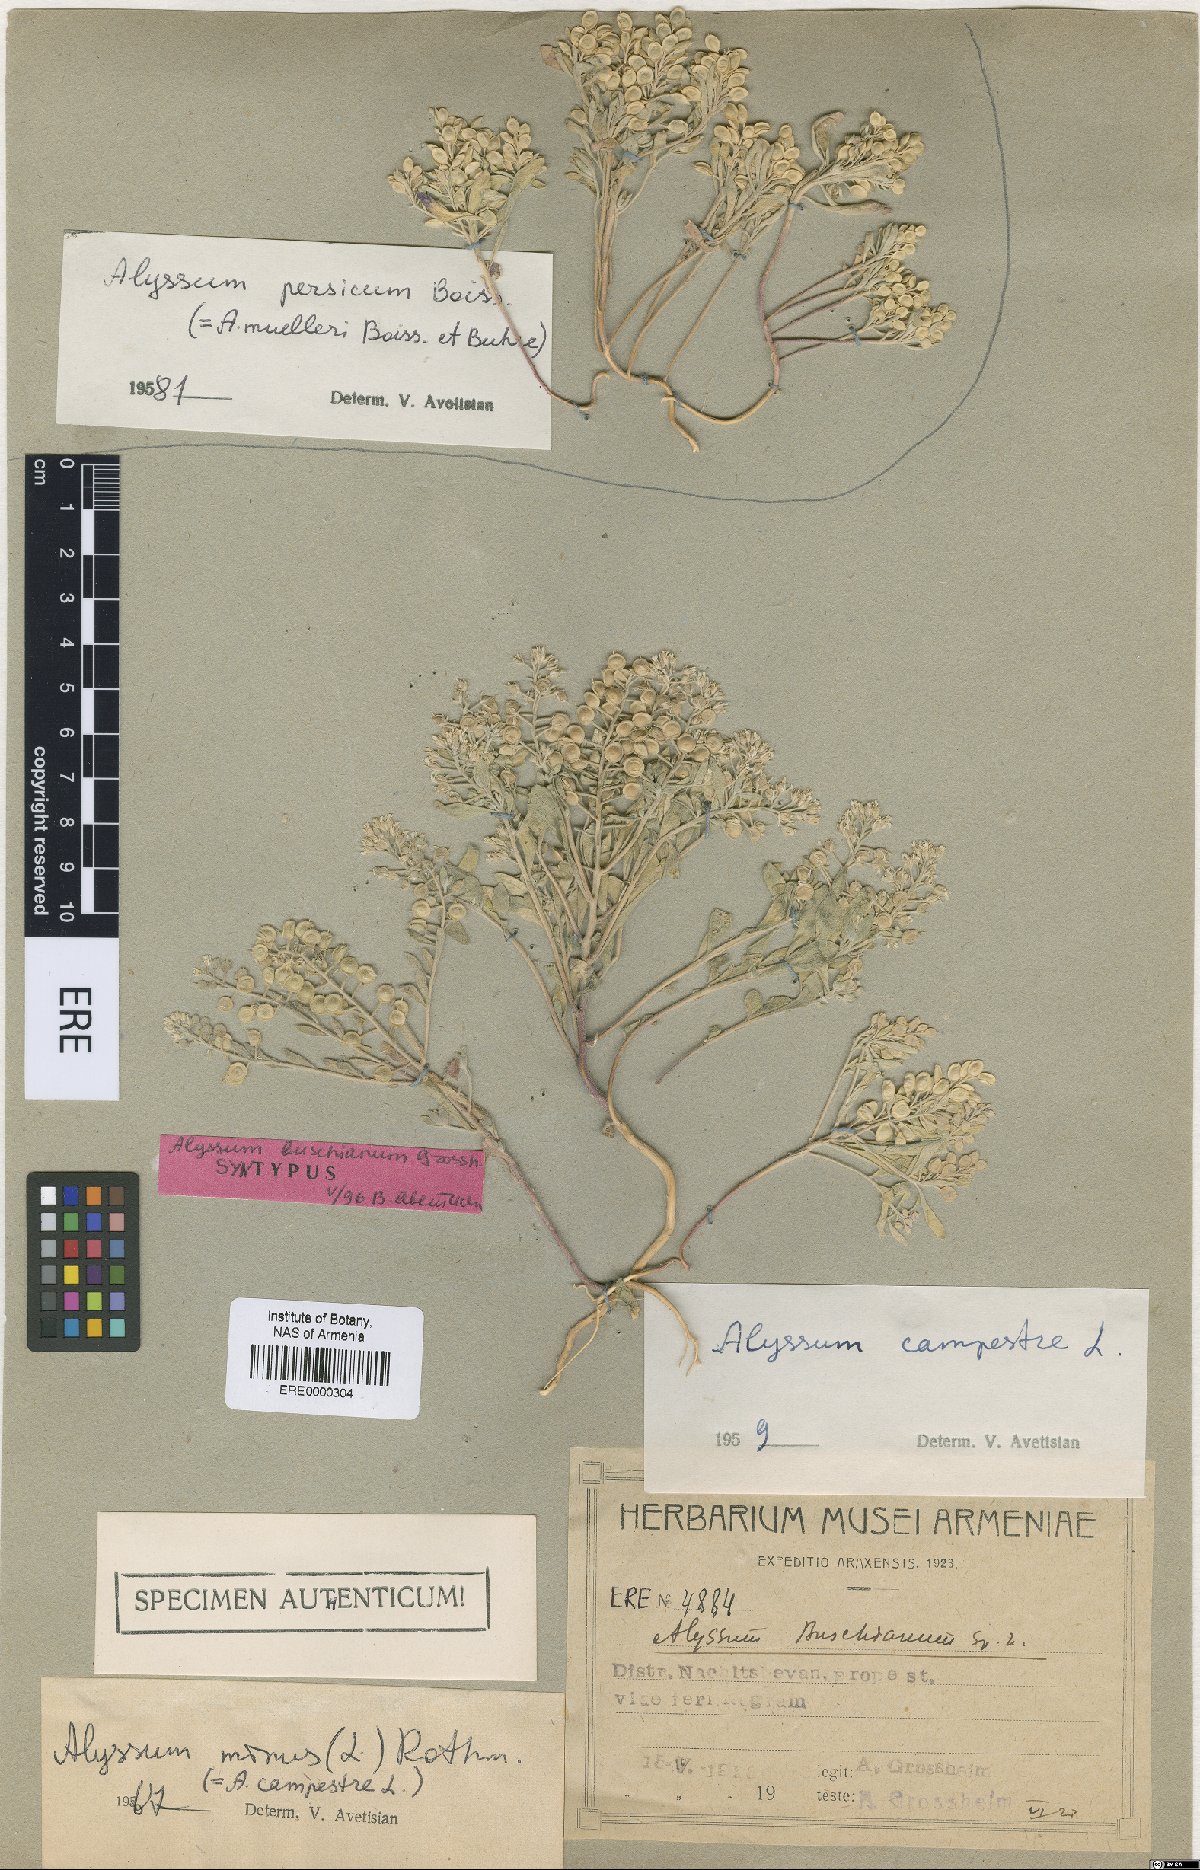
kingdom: Plantae
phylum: Tracheophyta
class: Magnoliopsida
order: Brassicales
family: Brassicaceae
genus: Alyssum
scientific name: Alyssum stapfii
